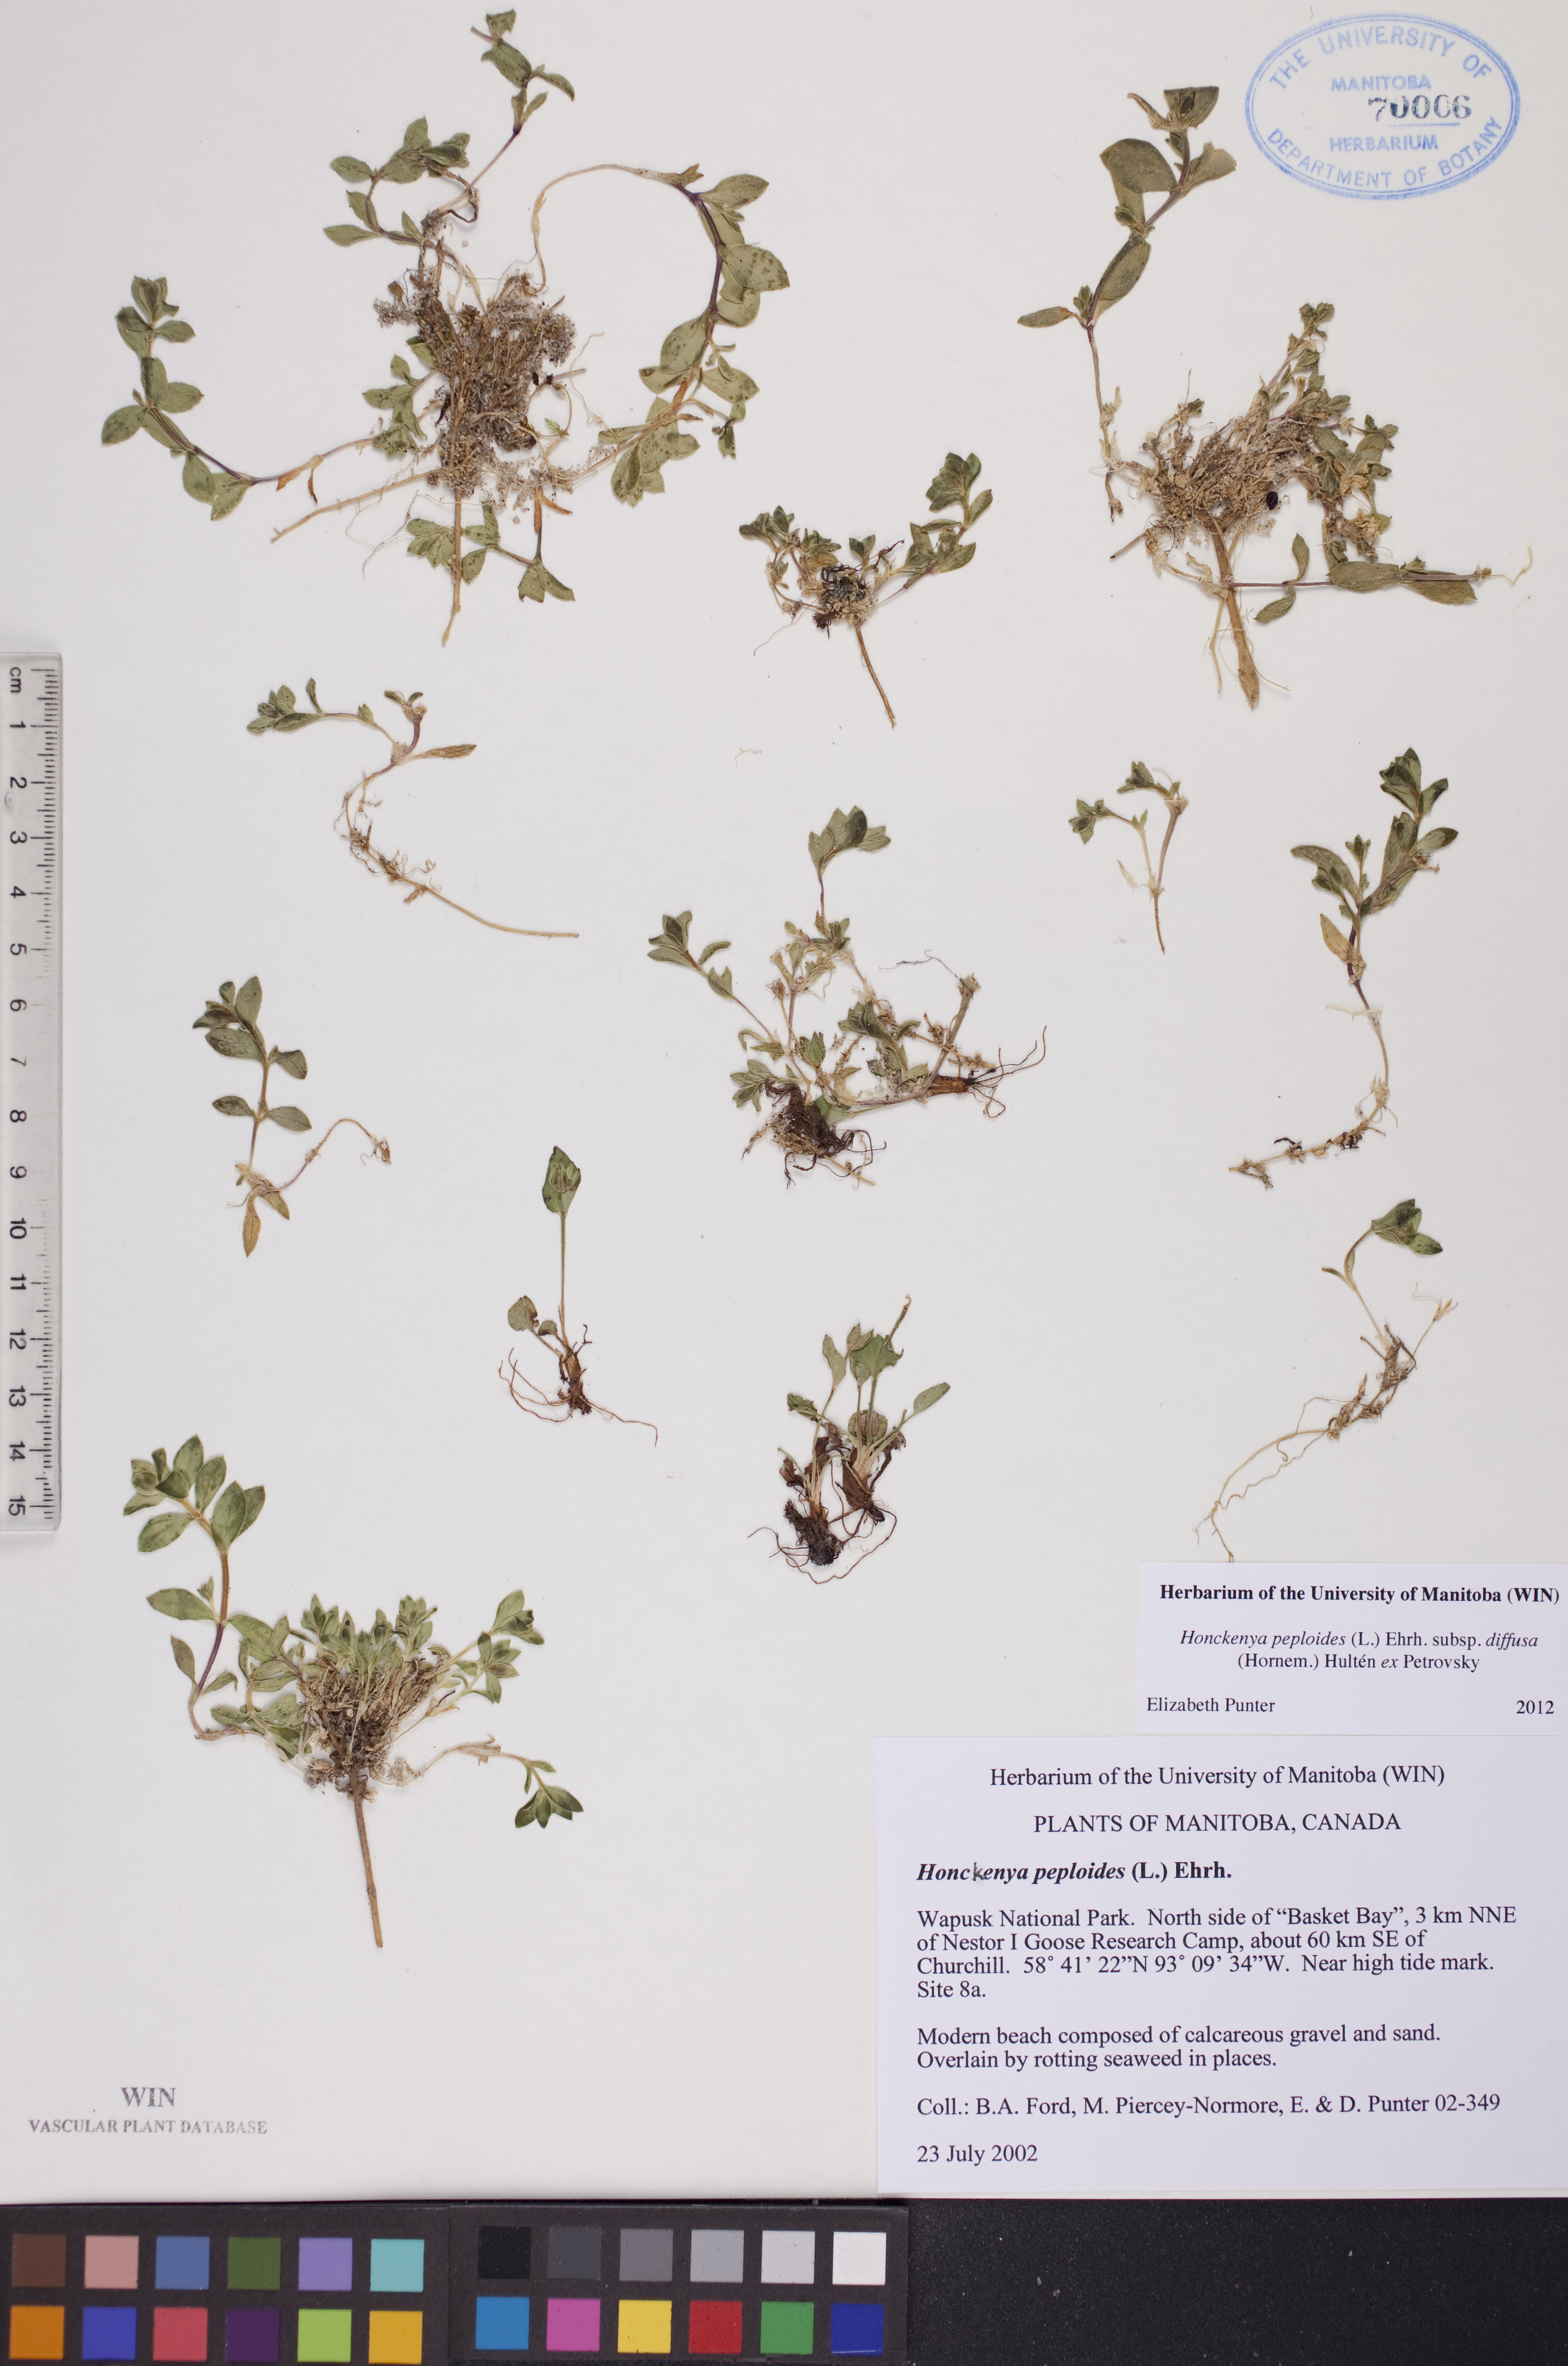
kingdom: Plantae
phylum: Tracheophyta
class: Magnoliopsida
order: Caryophyllales
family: Caryophyllaceae
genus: Honckenya
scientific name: Honckenya peploides
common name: Sea sandwort
